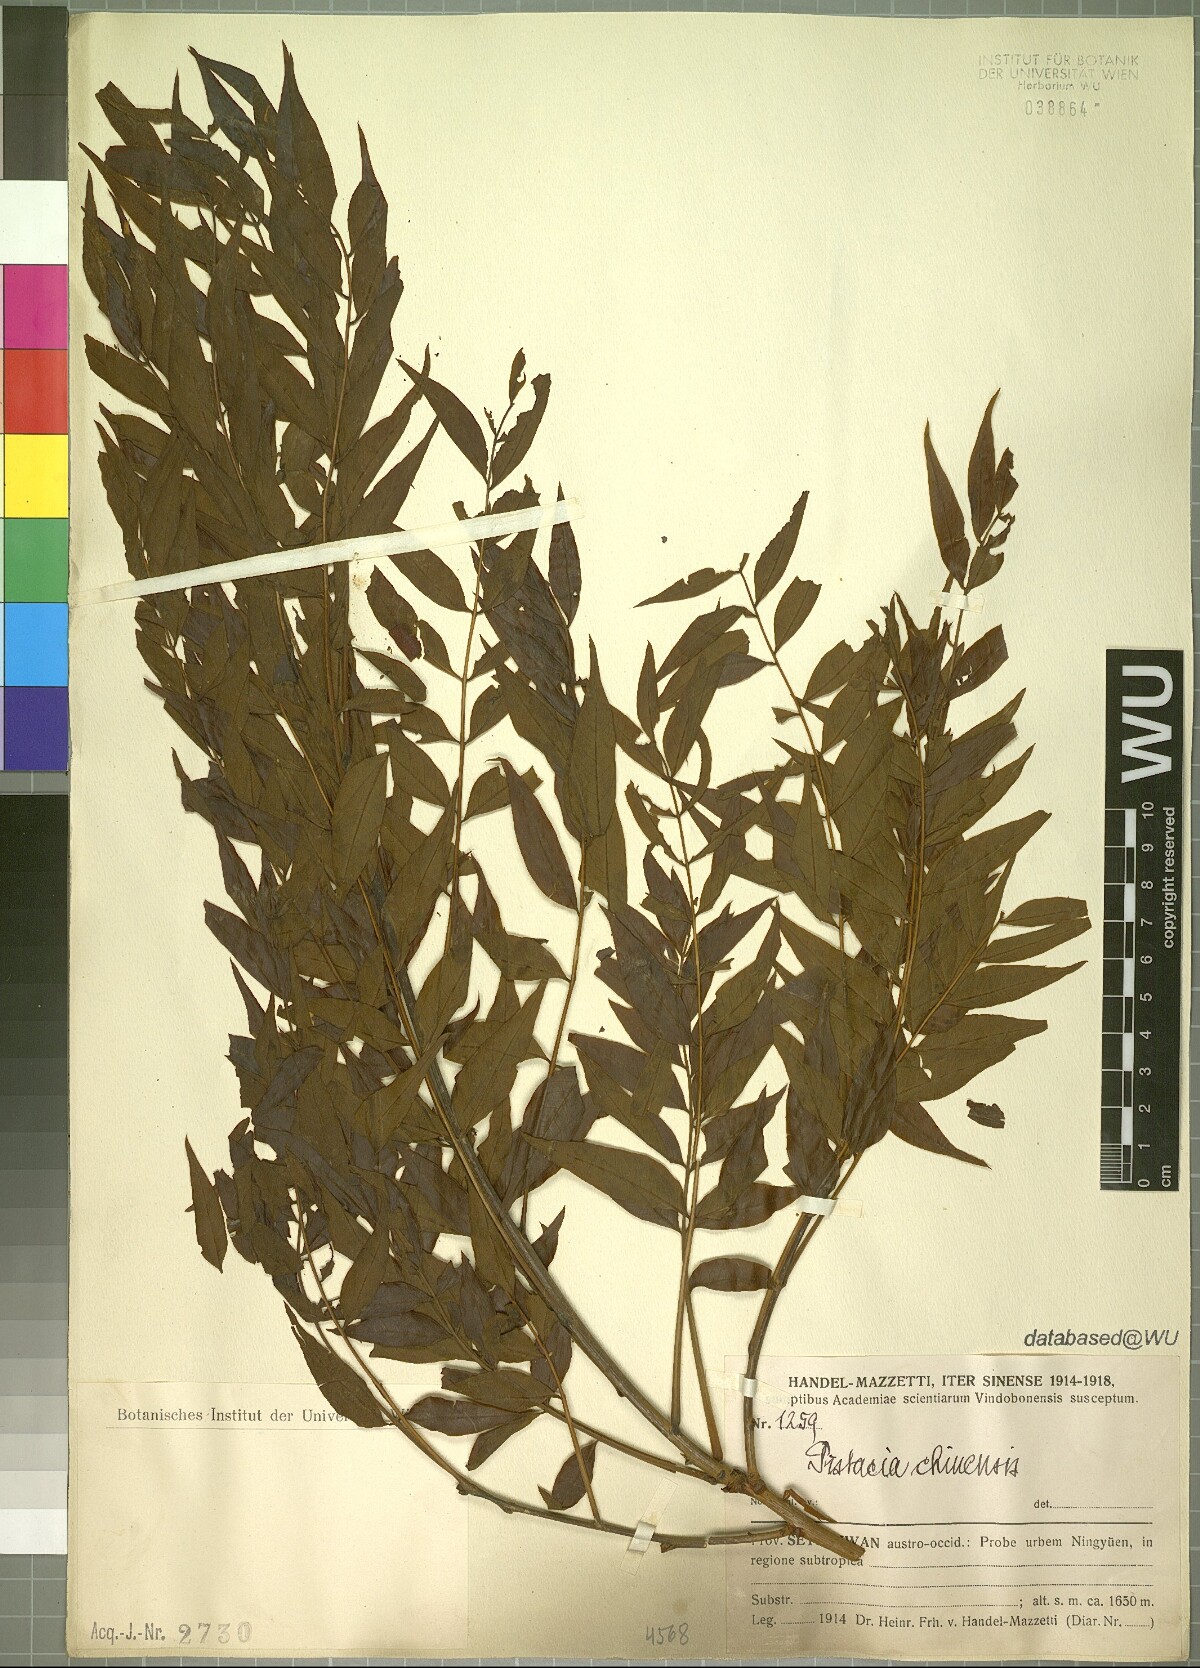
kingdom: Plantae
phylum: Tracheophyta
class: Magnoliopsida
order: Sapindales
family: Anacardiaceae
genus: Pistacia
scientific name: Pistacia chinensis
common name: Chinese pistache
